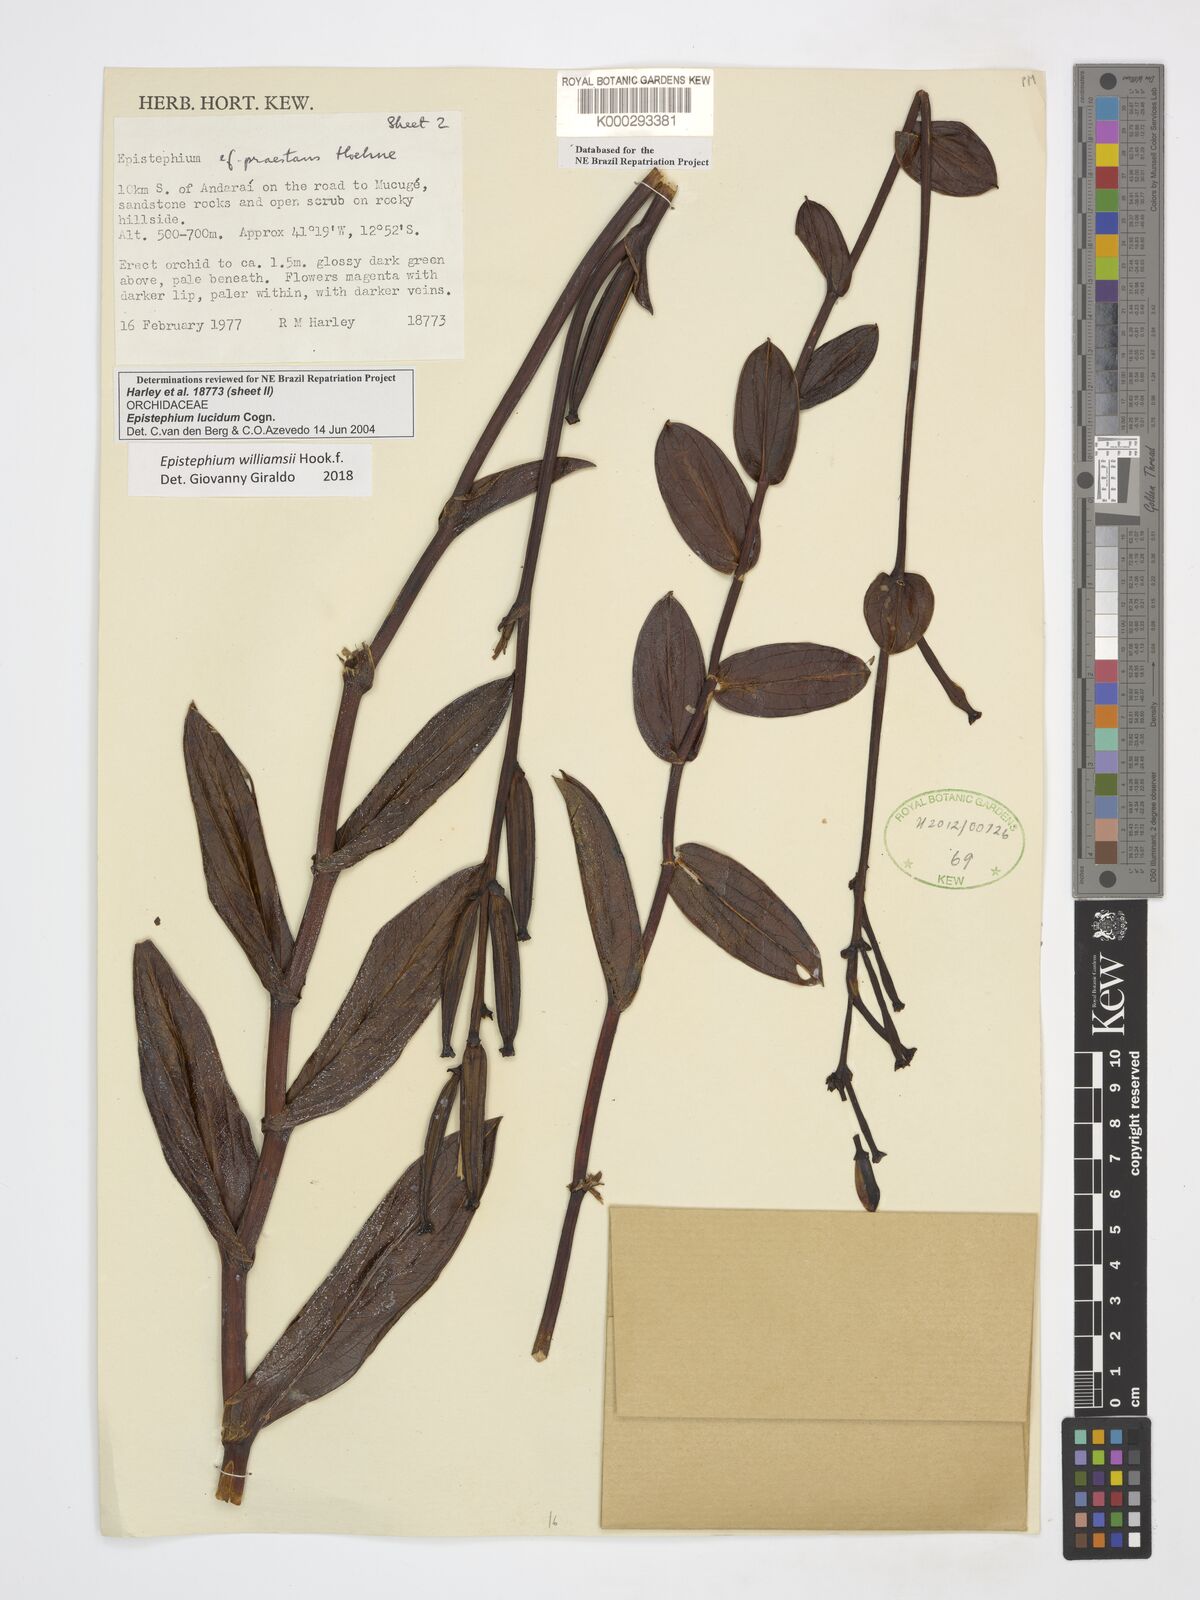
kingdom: Plantae
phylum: Tracheophyta
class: Liliopsida
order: Asparagales
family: Orchidaceae
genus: Epistephium
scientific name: Epistephium williamsii
